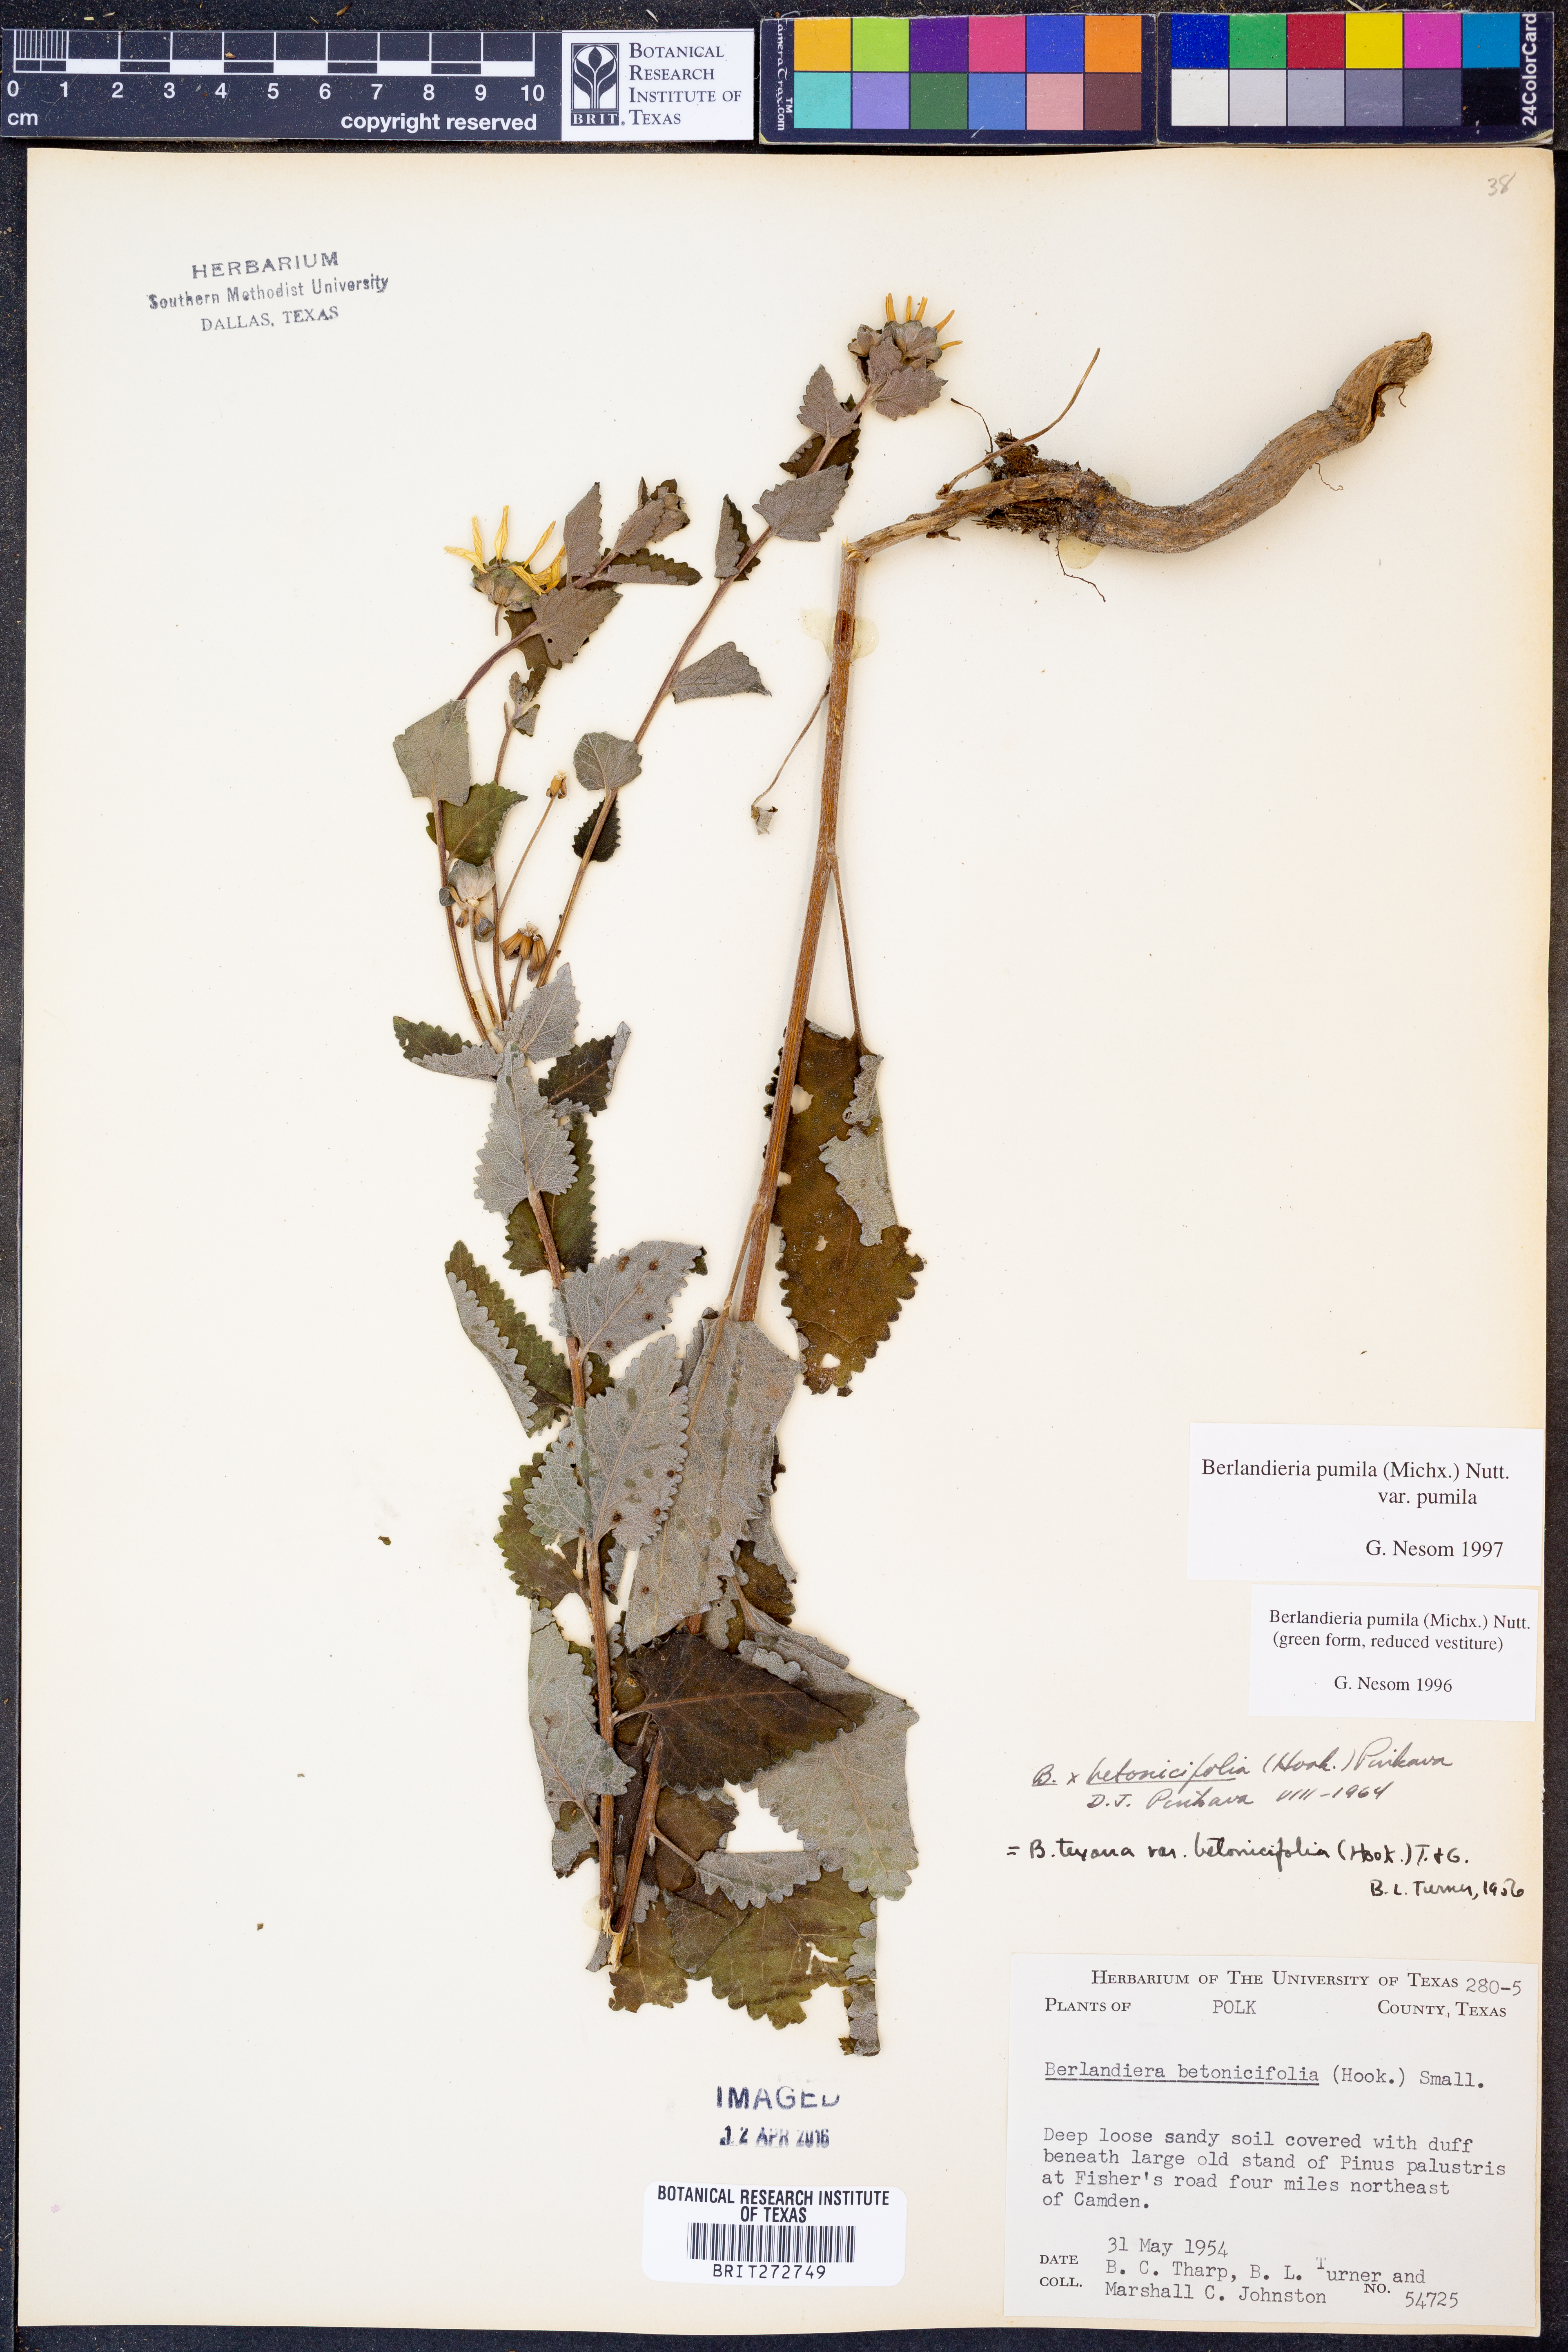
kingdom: Plantae
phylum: Tracheophyta
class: Magnoliopsida
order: Asterales
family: Asteraceae
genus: Berlandiera
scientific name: Berlandiera pumila
